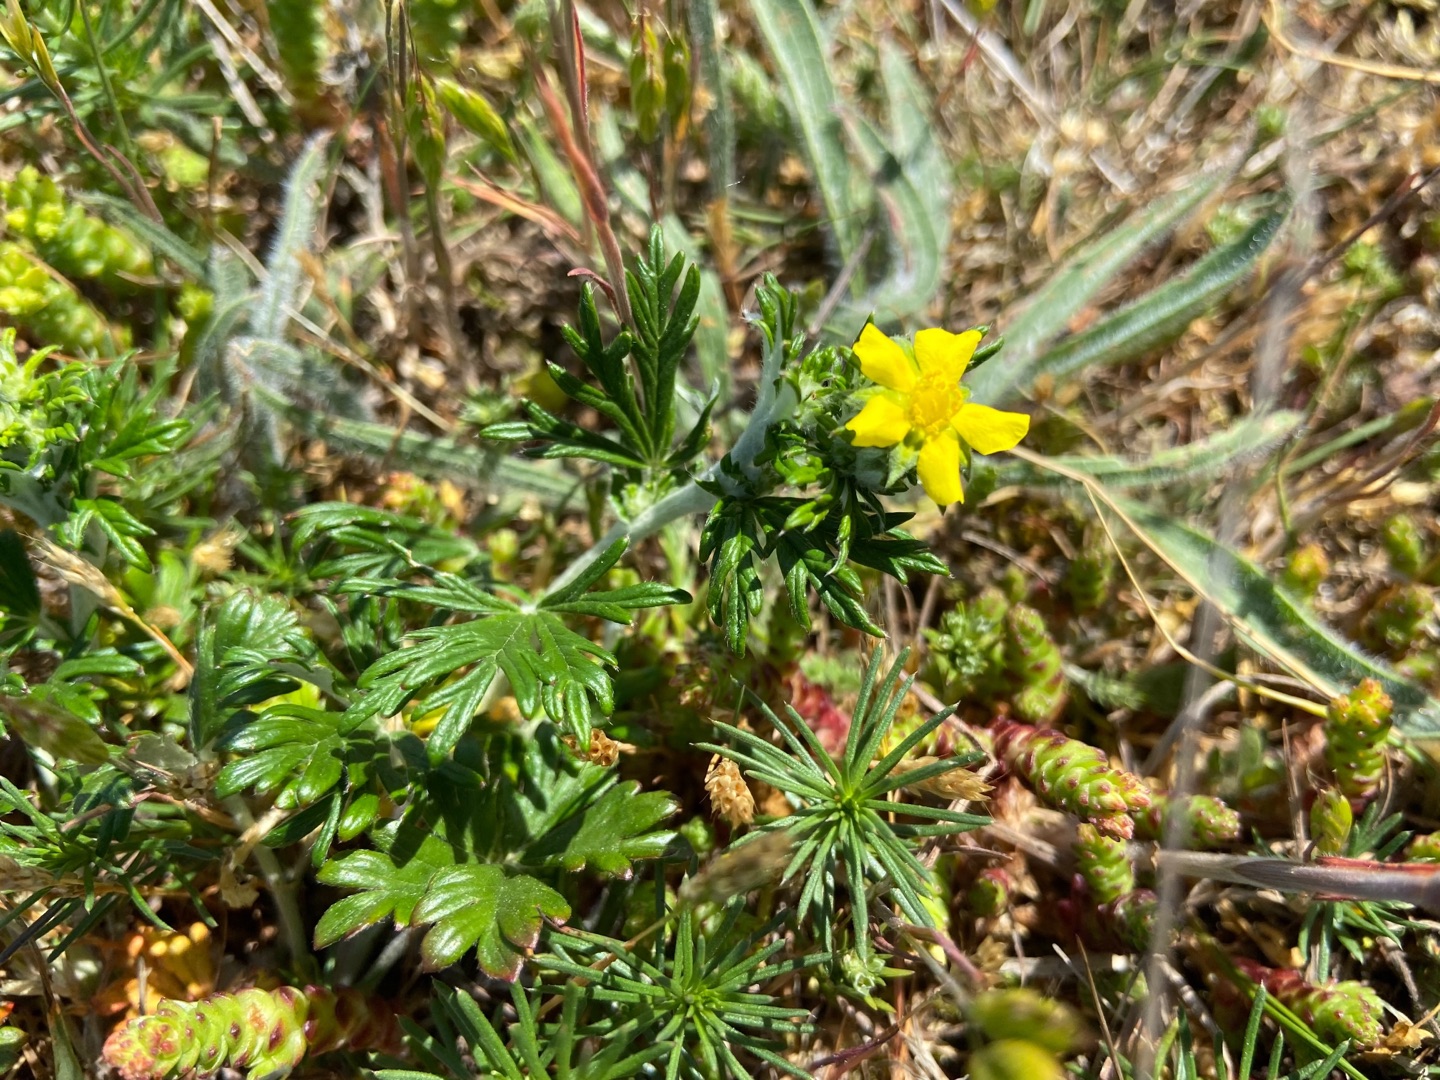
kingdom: Plantae
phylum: Tracheophyta
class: Magnoliopsida
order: Rosales
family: Rosaceae
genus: Potentilla
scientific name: Potentilla argentea
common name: Sølv-potentil
